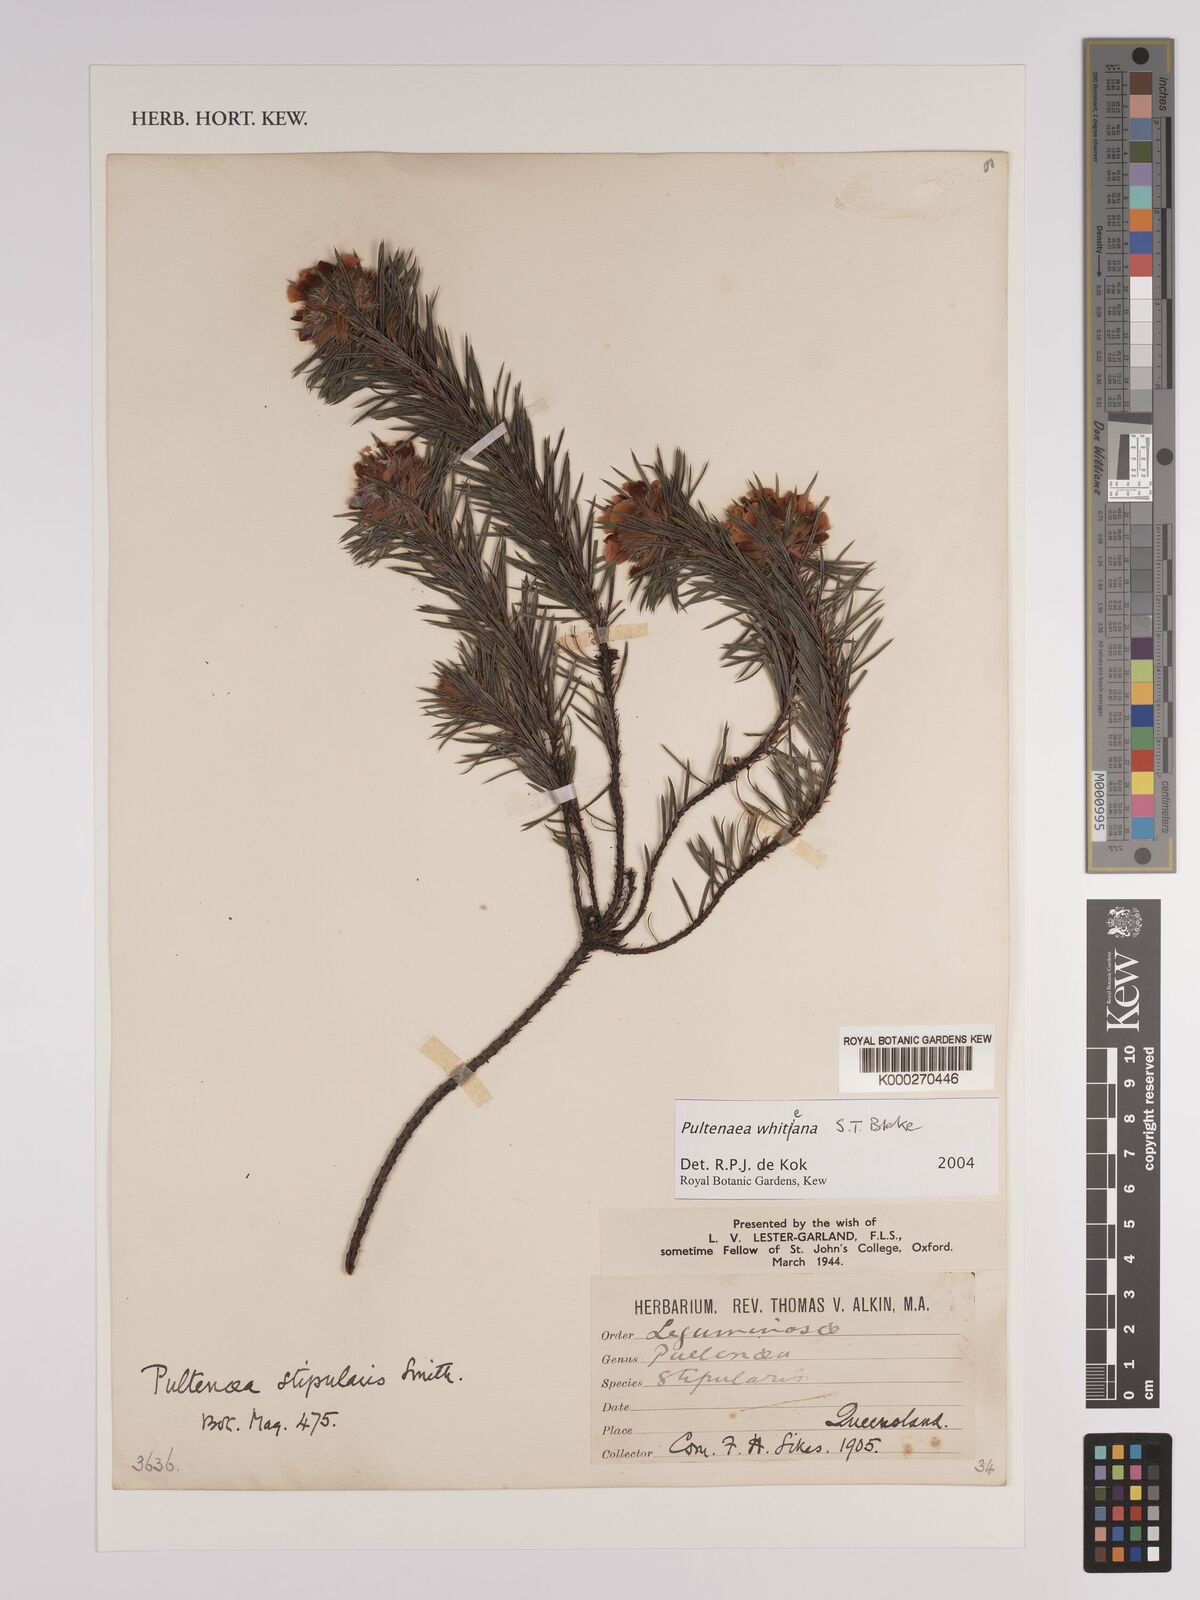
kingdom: Plantae
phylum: Tracheophyta
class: Magnoliopsida
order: Fabales
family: Fabaceae
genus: Pultenaea
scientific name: Pultenaea whiteana
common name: Mount barney bush pea
